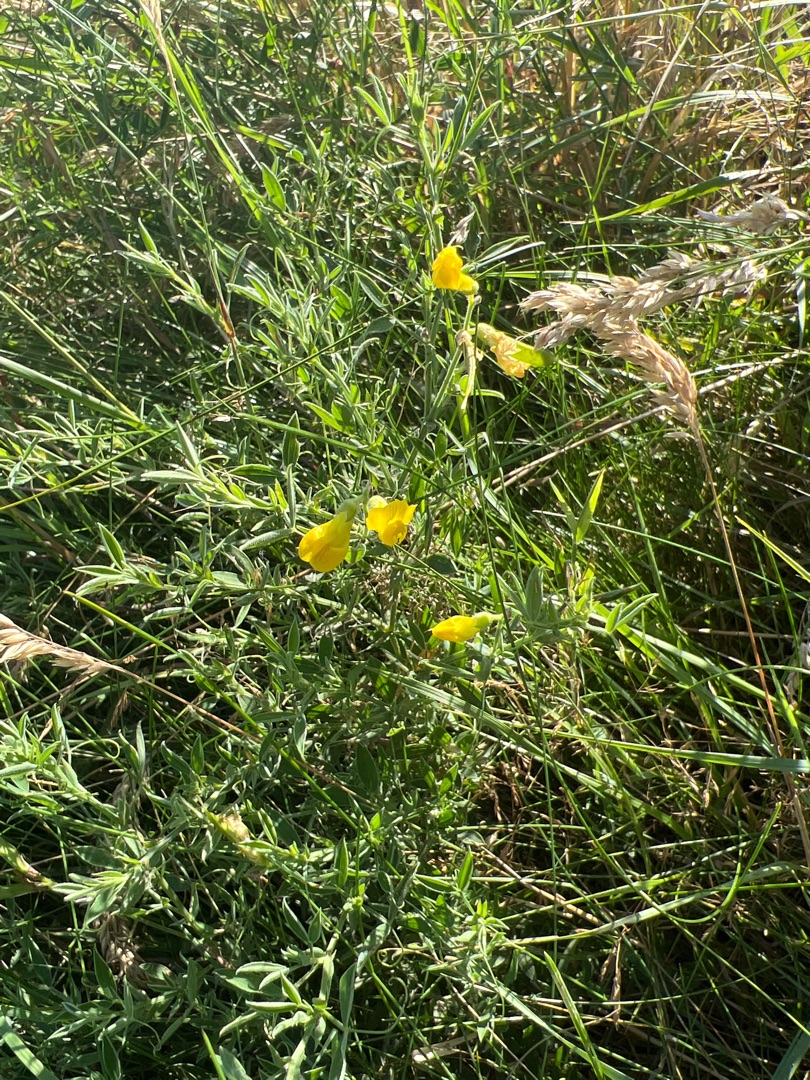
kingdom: Plantae
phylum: Tracheophyta
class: Magnoliopsida
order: Fabales
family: Fabaceae
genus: Lathyrus
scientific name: Lathyrus pratensis
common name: Gul fladbælg
